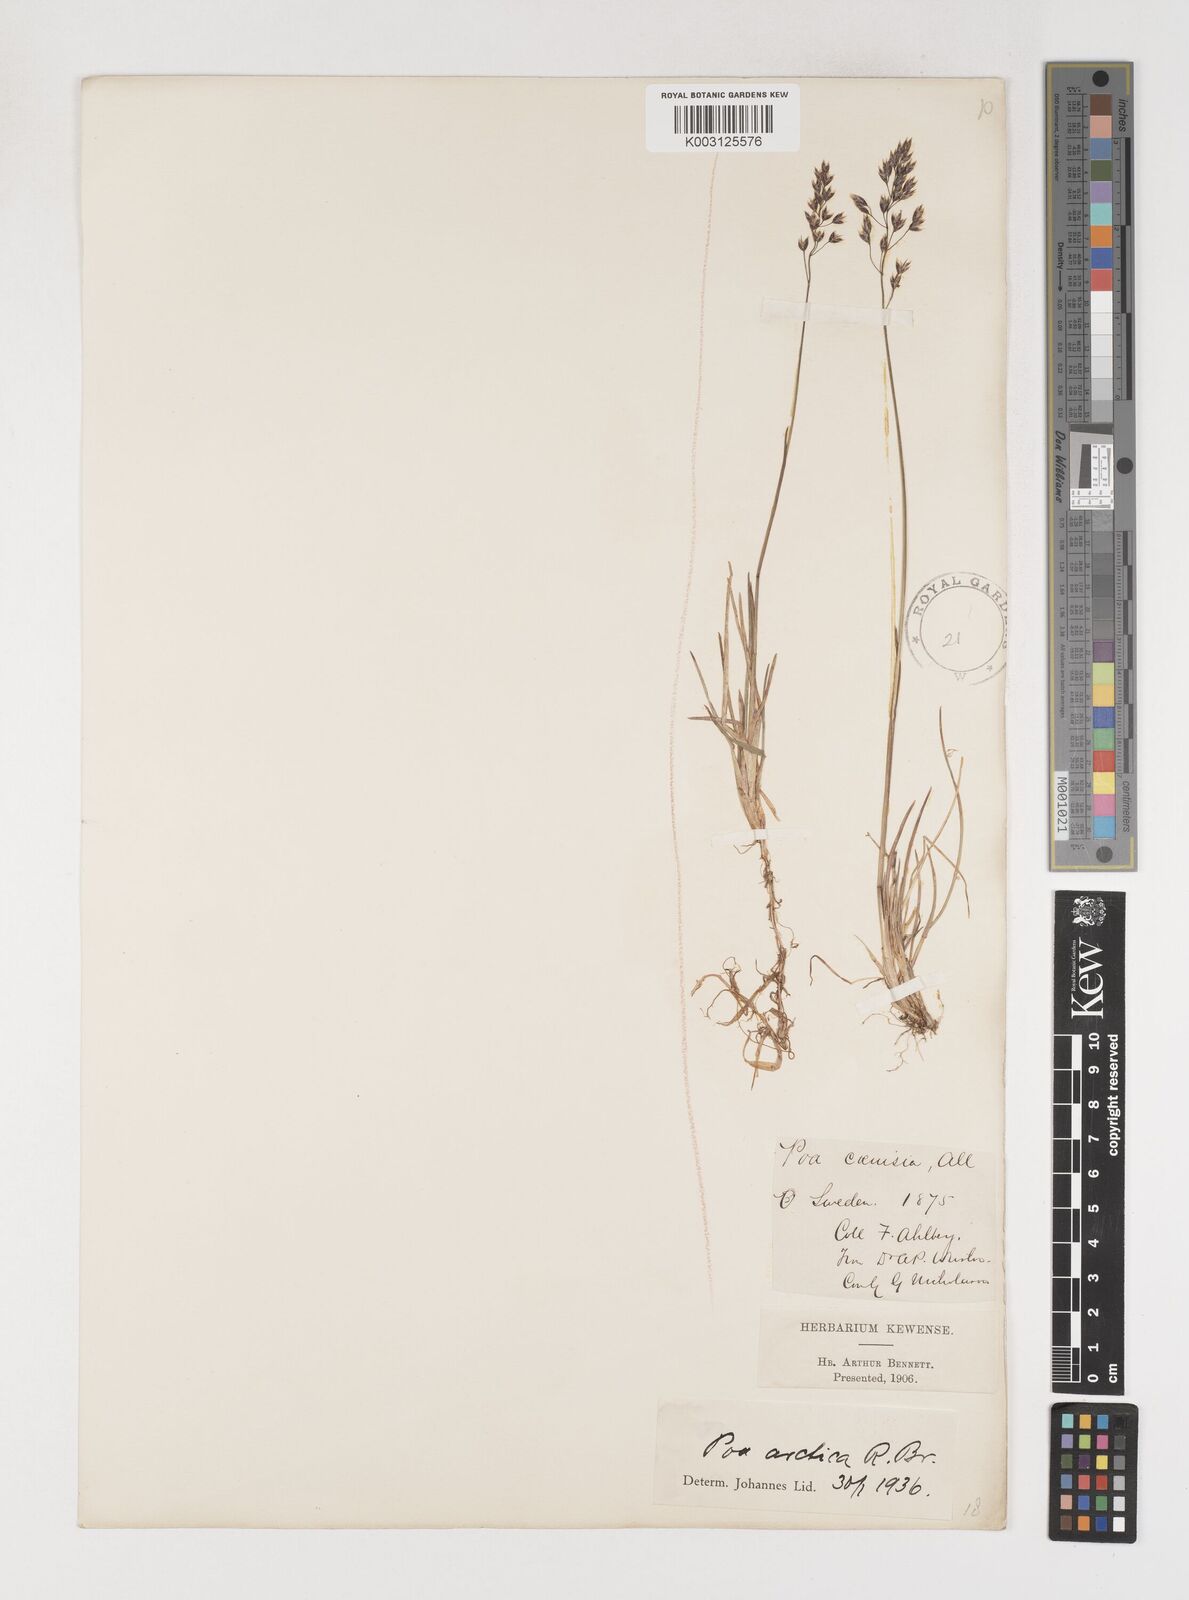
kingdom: Plantae
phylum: Tracheophyta
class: Liliopsida
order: Poales
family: Poaceae
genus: Poa
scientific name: Poa arctica
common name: Arctic bluegrass
